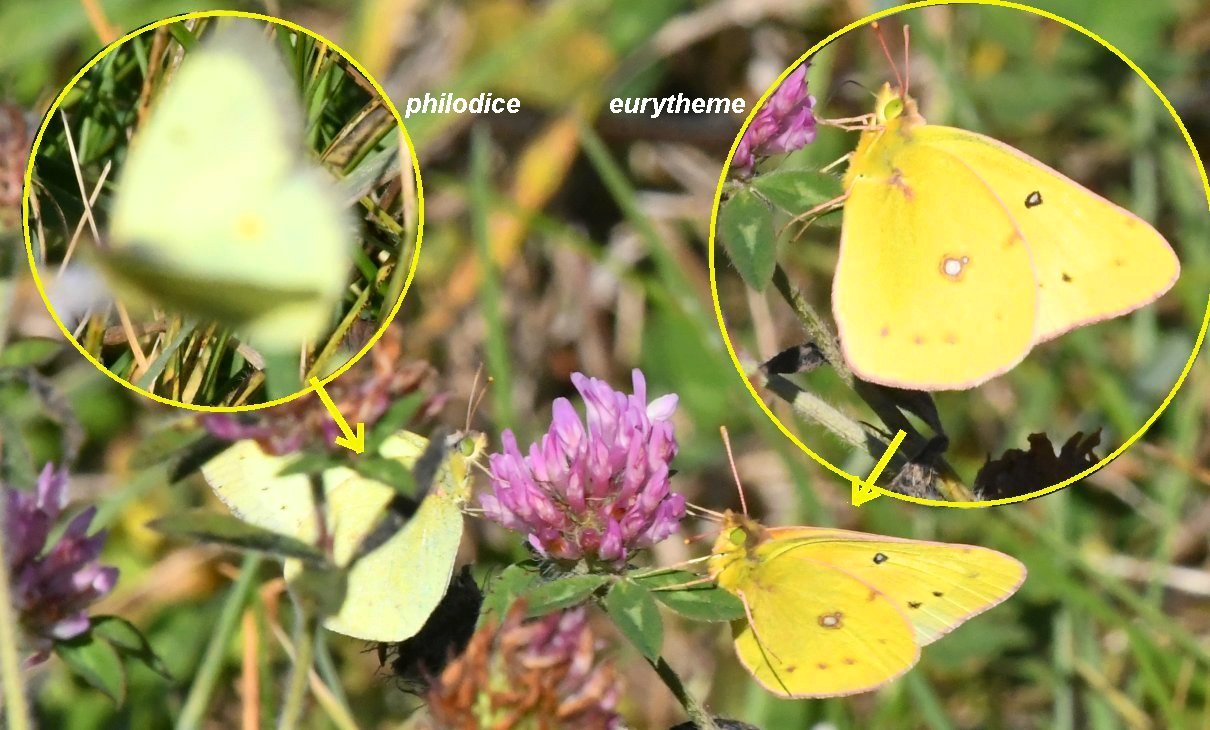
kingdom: Animalia
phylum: Arthropoda
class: Insecta
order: Lepidoptera
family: Pieridae
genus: Colias
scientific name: Colias eurytheme
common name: Orange Sulphur
